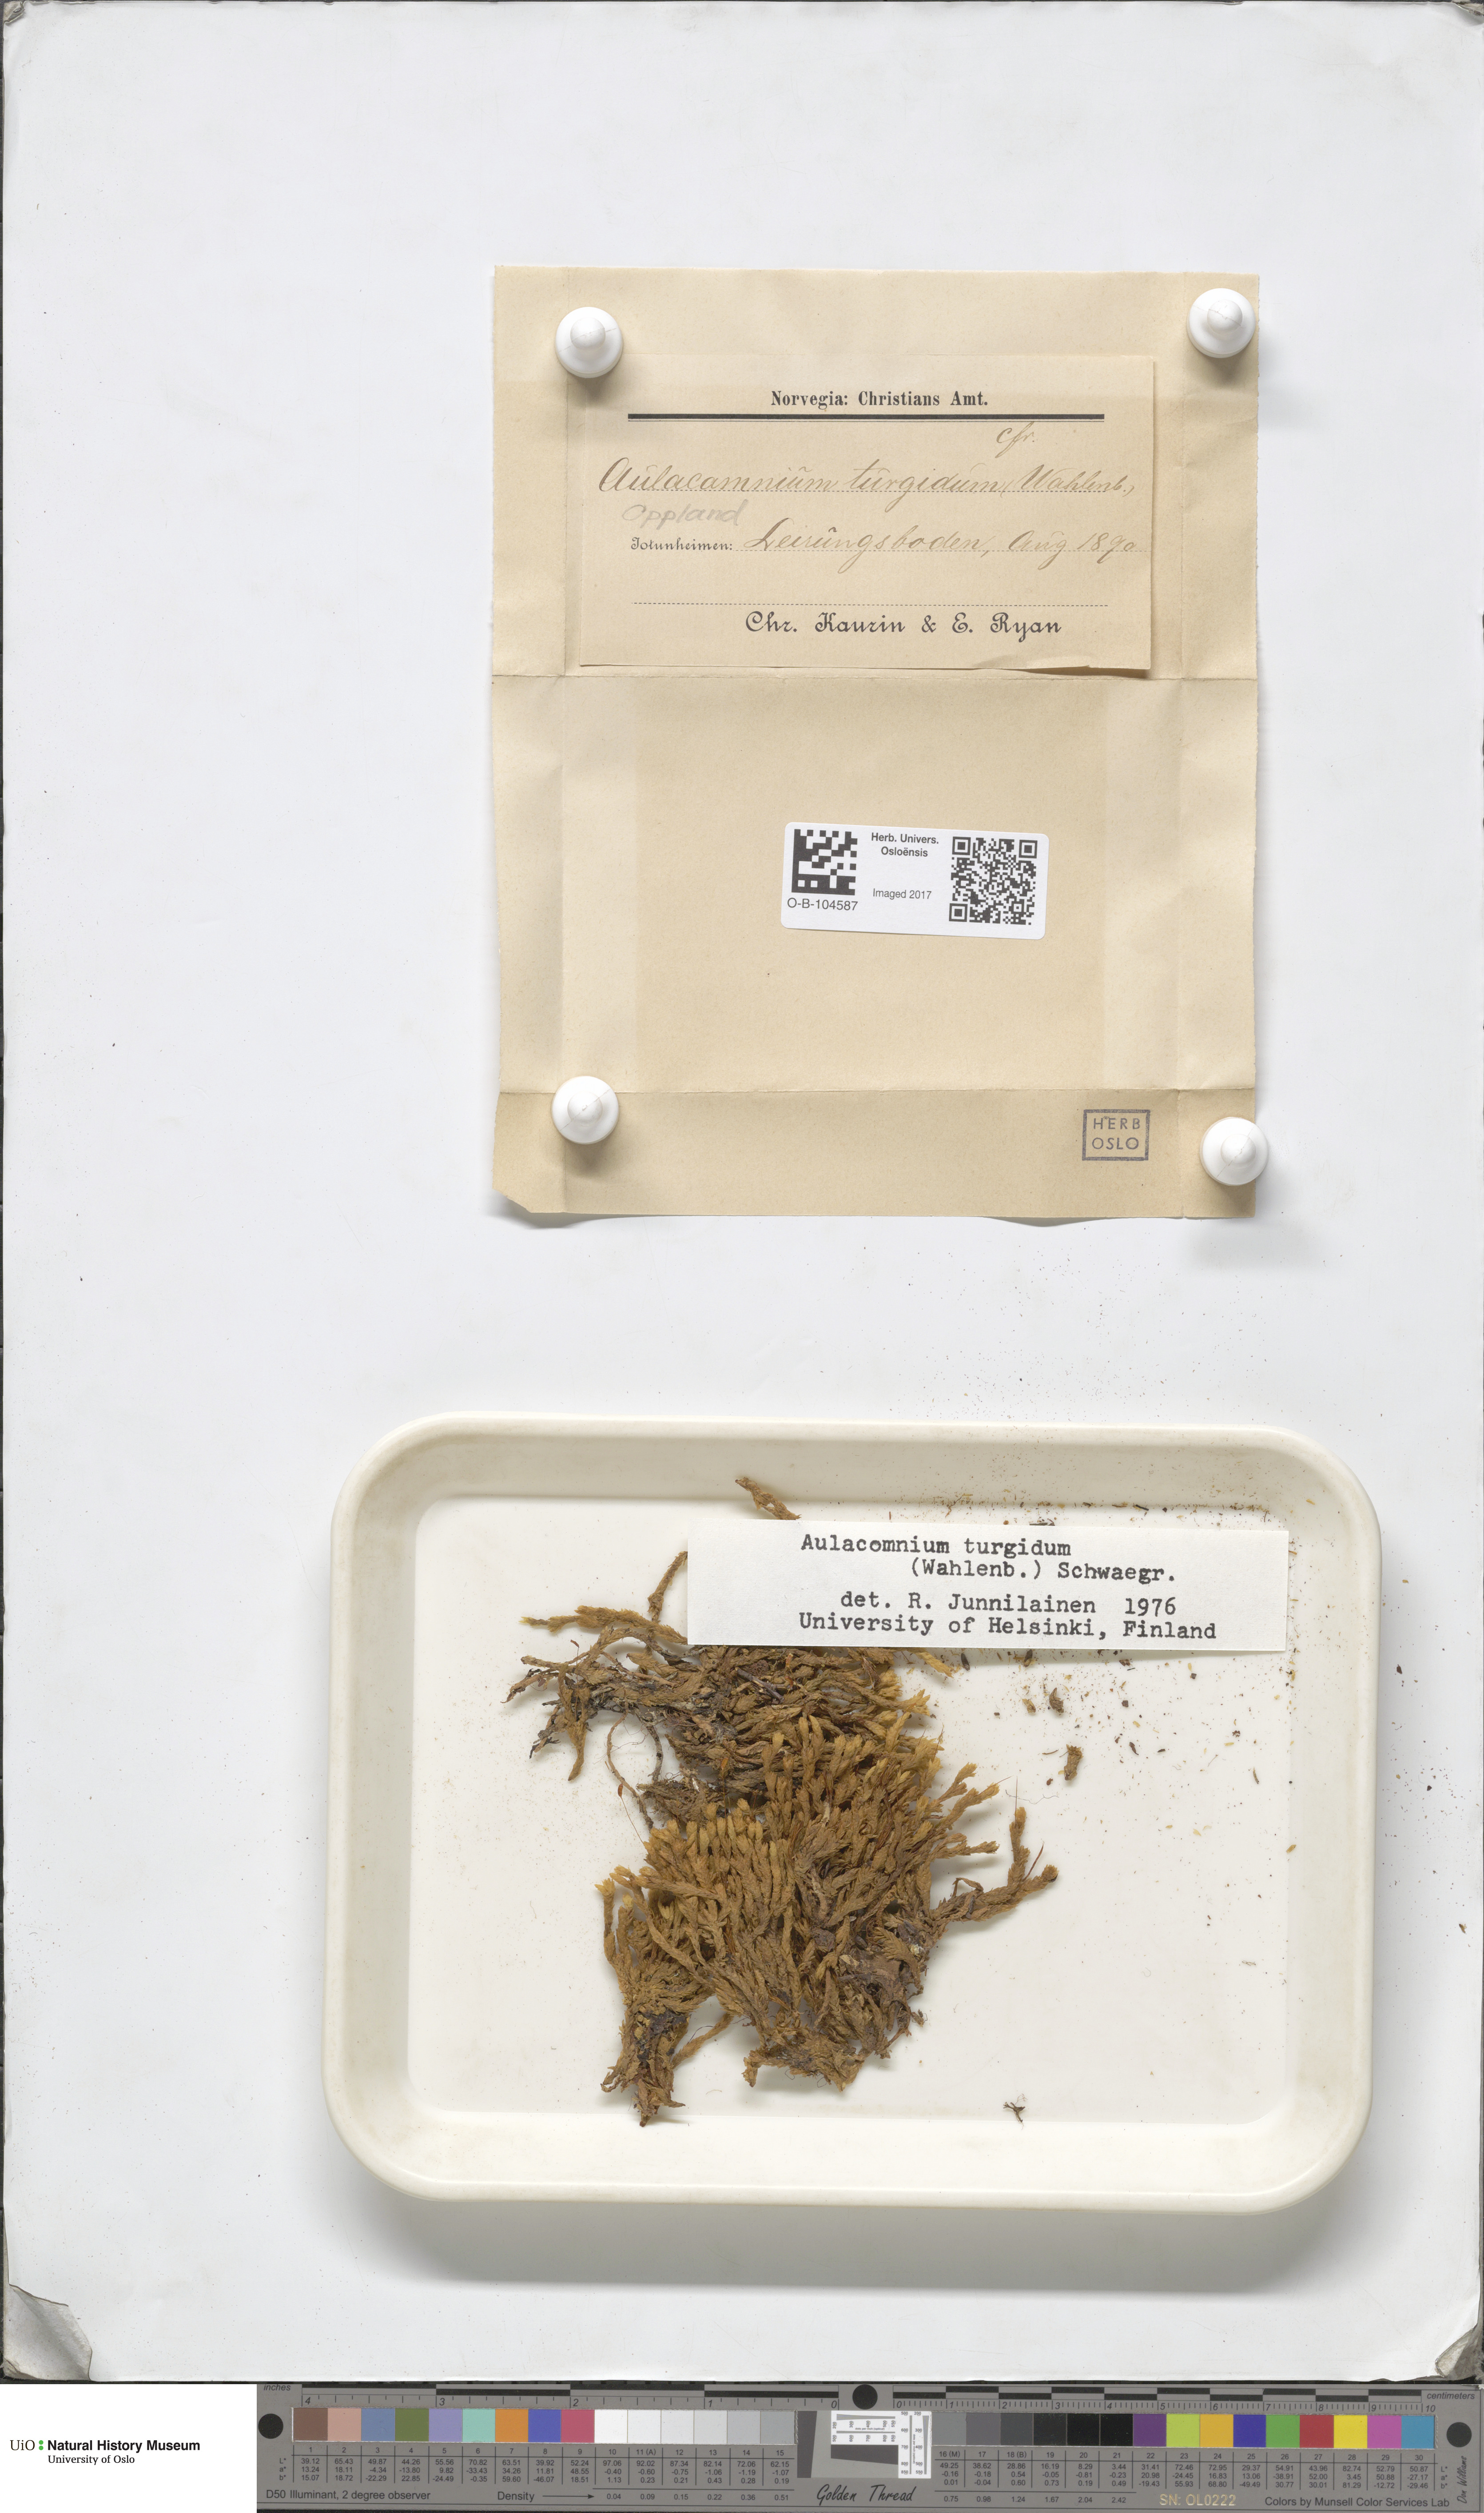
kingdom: Plantae
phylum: Bryophyta
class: Bryopsida
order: Aulacomniales
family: Aulacomniaceae
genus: Aulacomnium
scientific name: Aulacomnium turgidum
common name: Mountain groove moss
